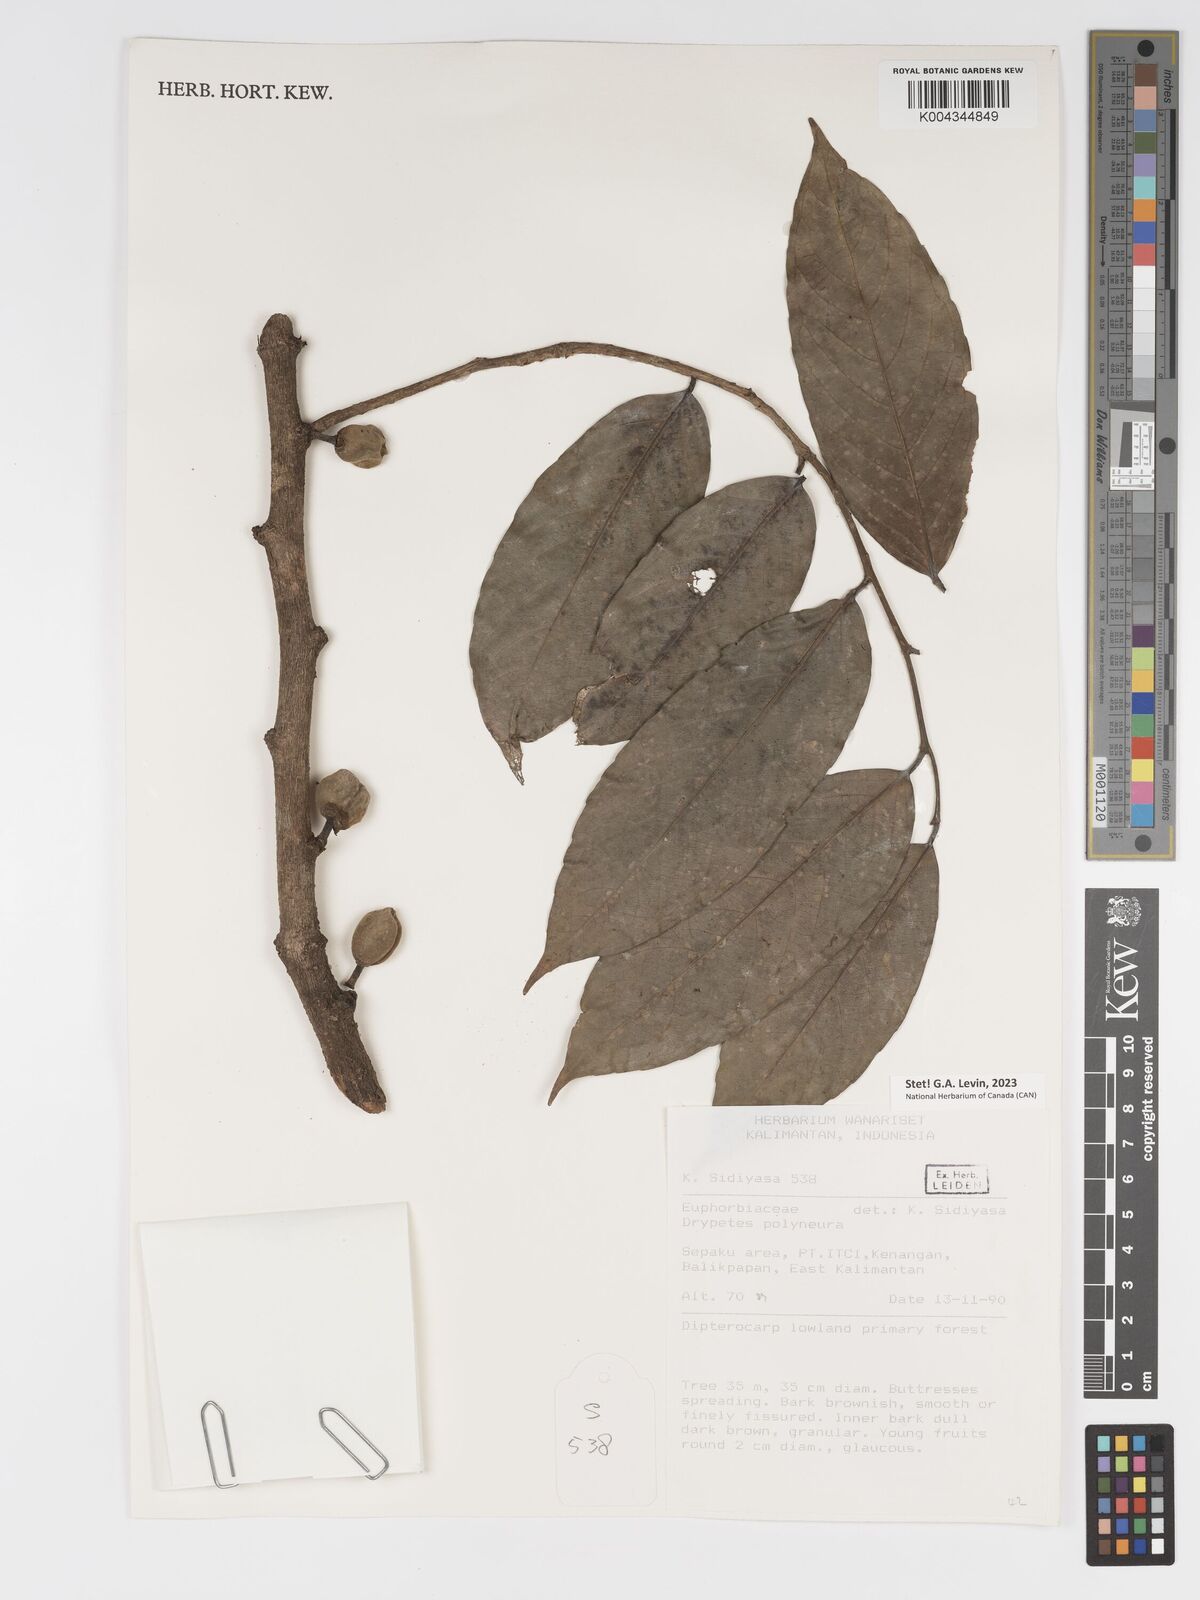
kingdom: Plantae
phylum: Tracheophyta
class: Magnoliopsida
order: Malpighiales
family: Putranjivaceae
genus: Drypetes
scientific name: Drypetes polyneura
